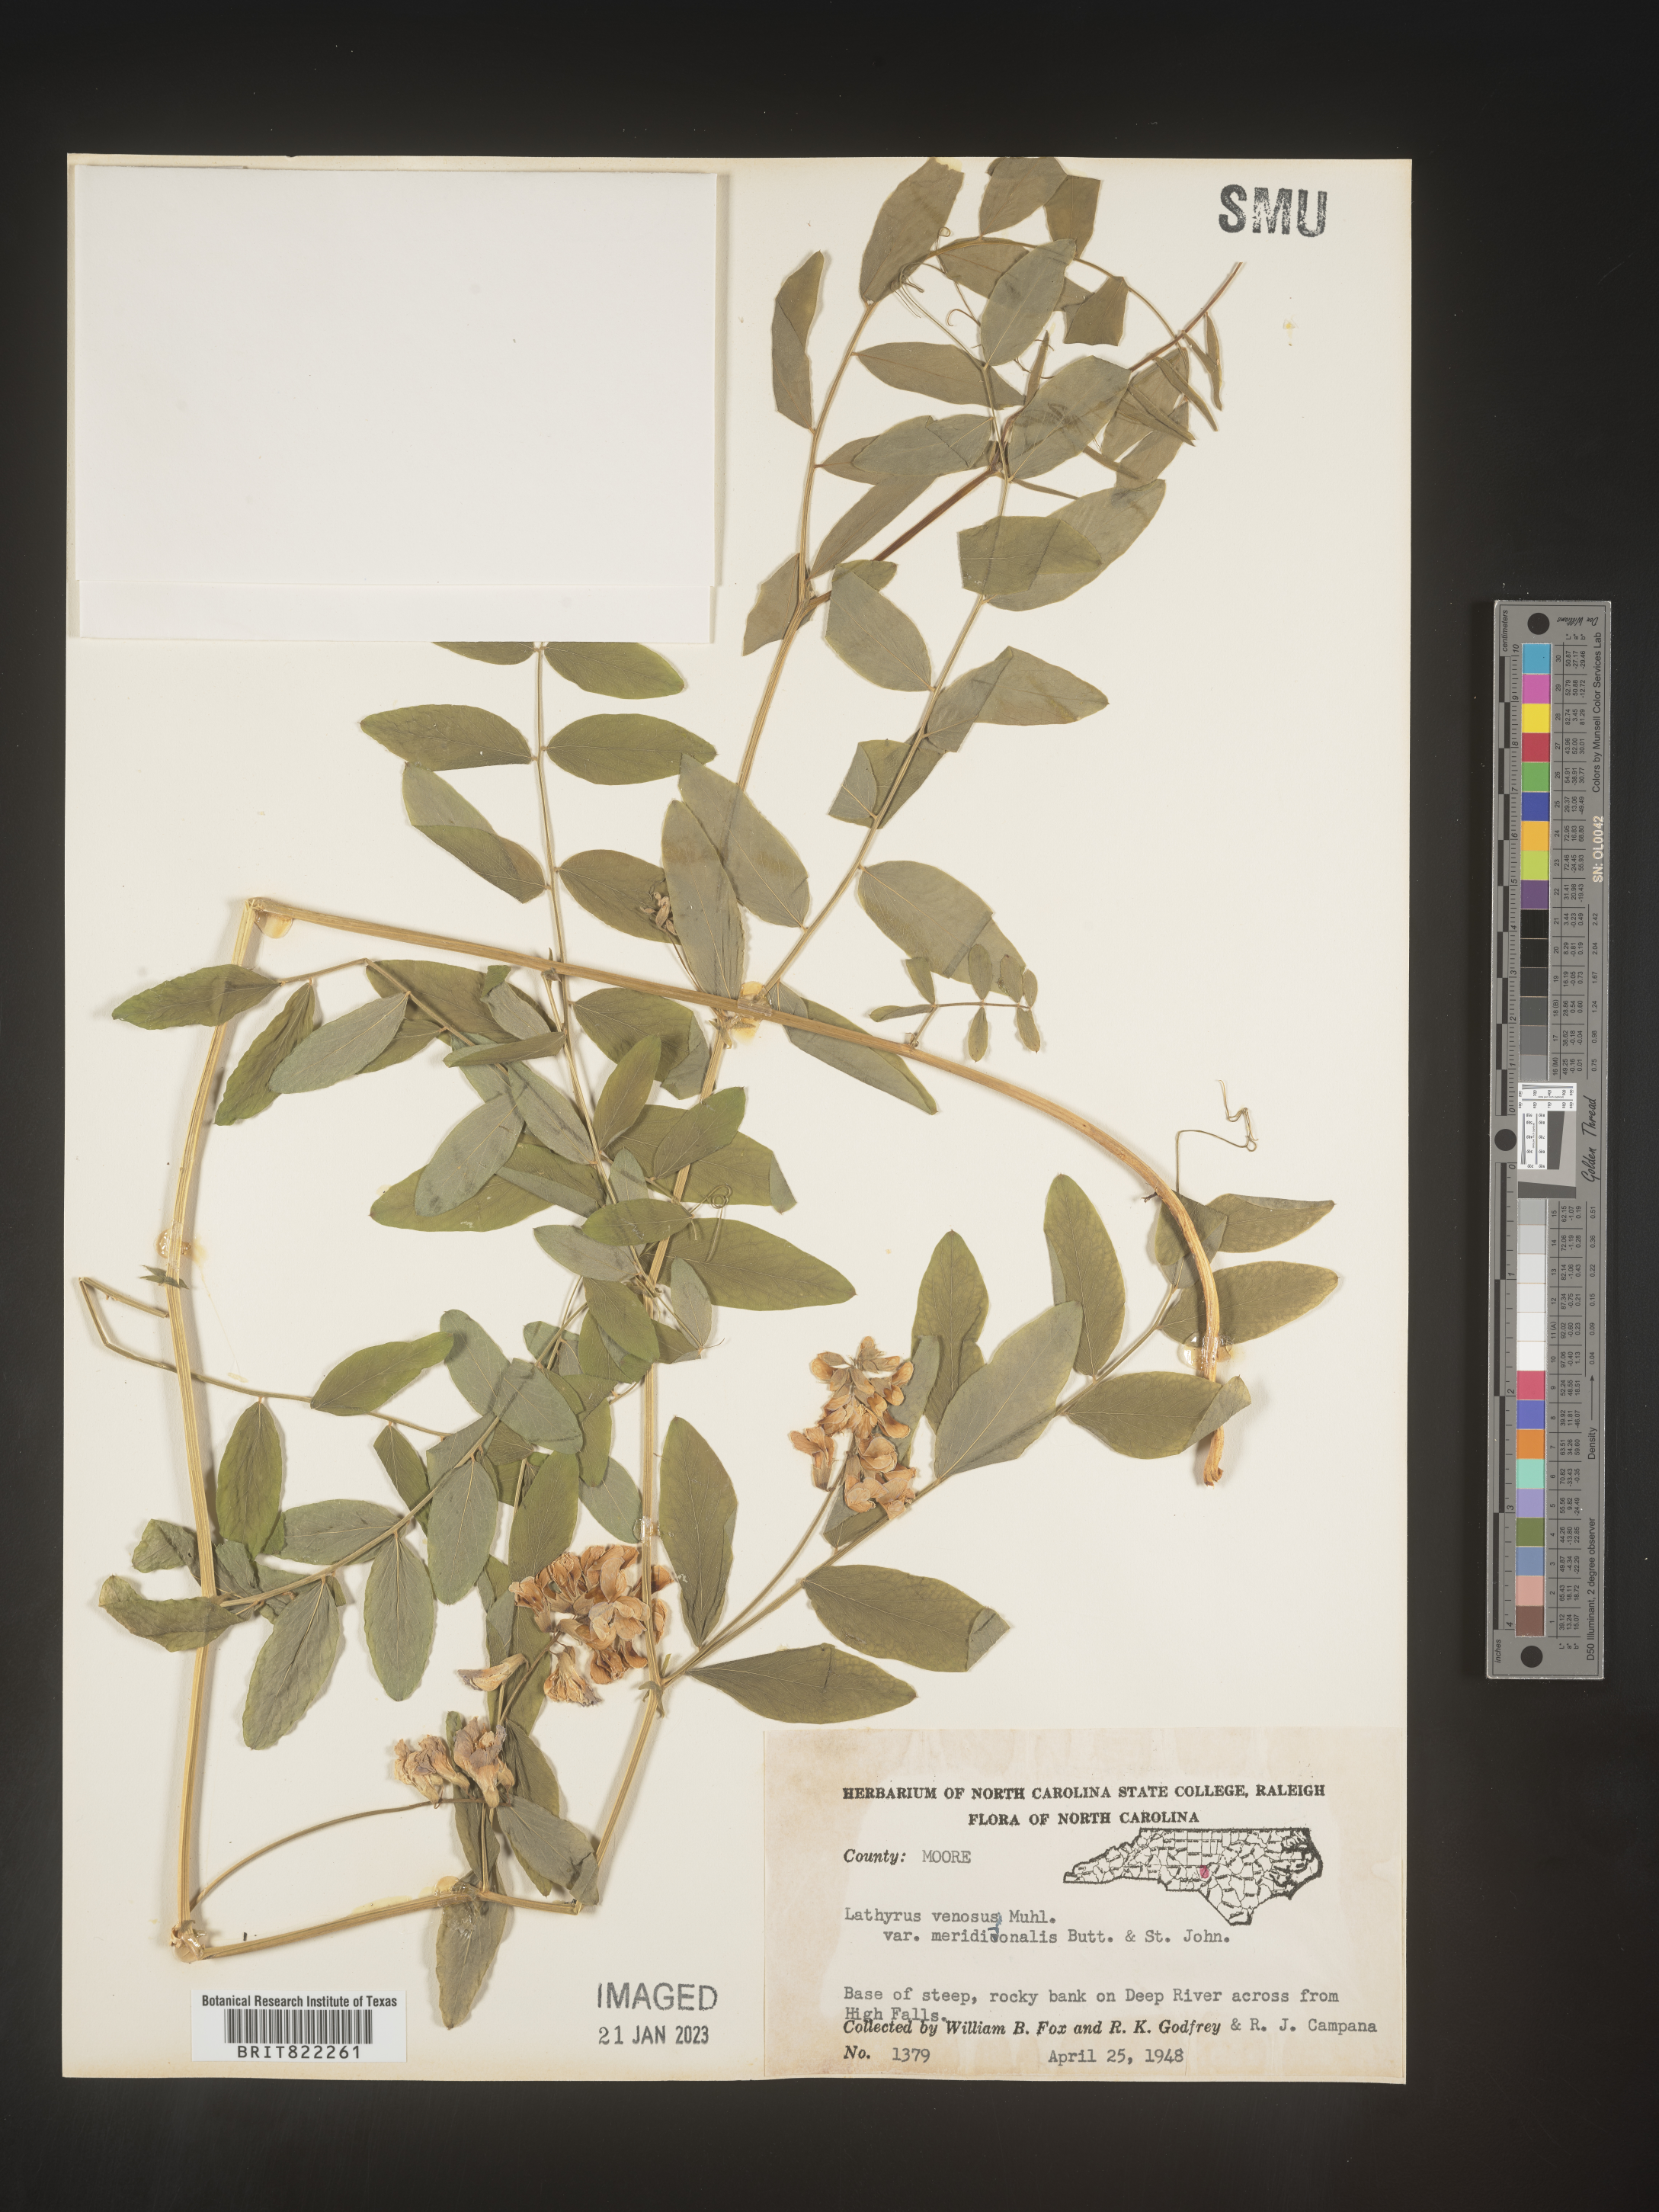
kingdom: Plantae
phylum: Tracheophyta
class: Magnoliopsida
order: Fabales
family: Fabaceae
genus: Lathyrus
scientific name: Lathyrus venosus
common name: Forest-pea
